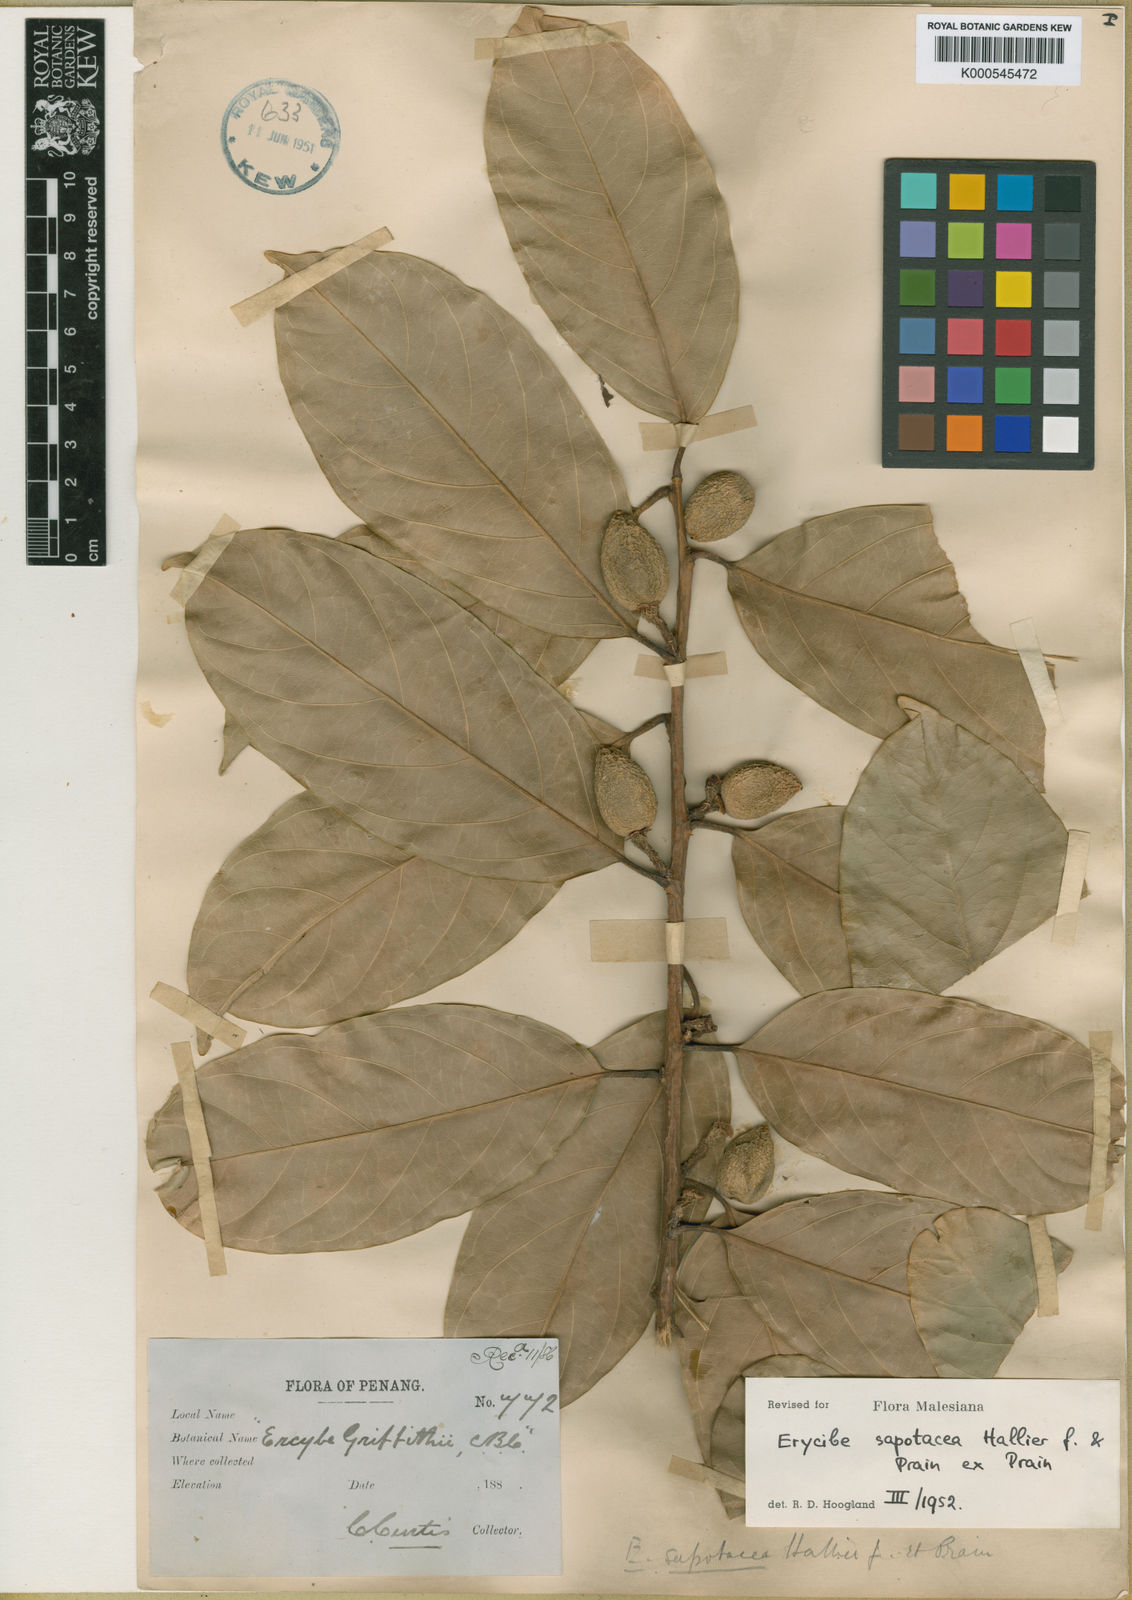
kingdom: Plantae
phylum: Tracheophyta
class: Magnoliopsida
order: Solanales
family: Convolvulaceae
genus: Erycibe
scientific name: Erycibe sapotacea
